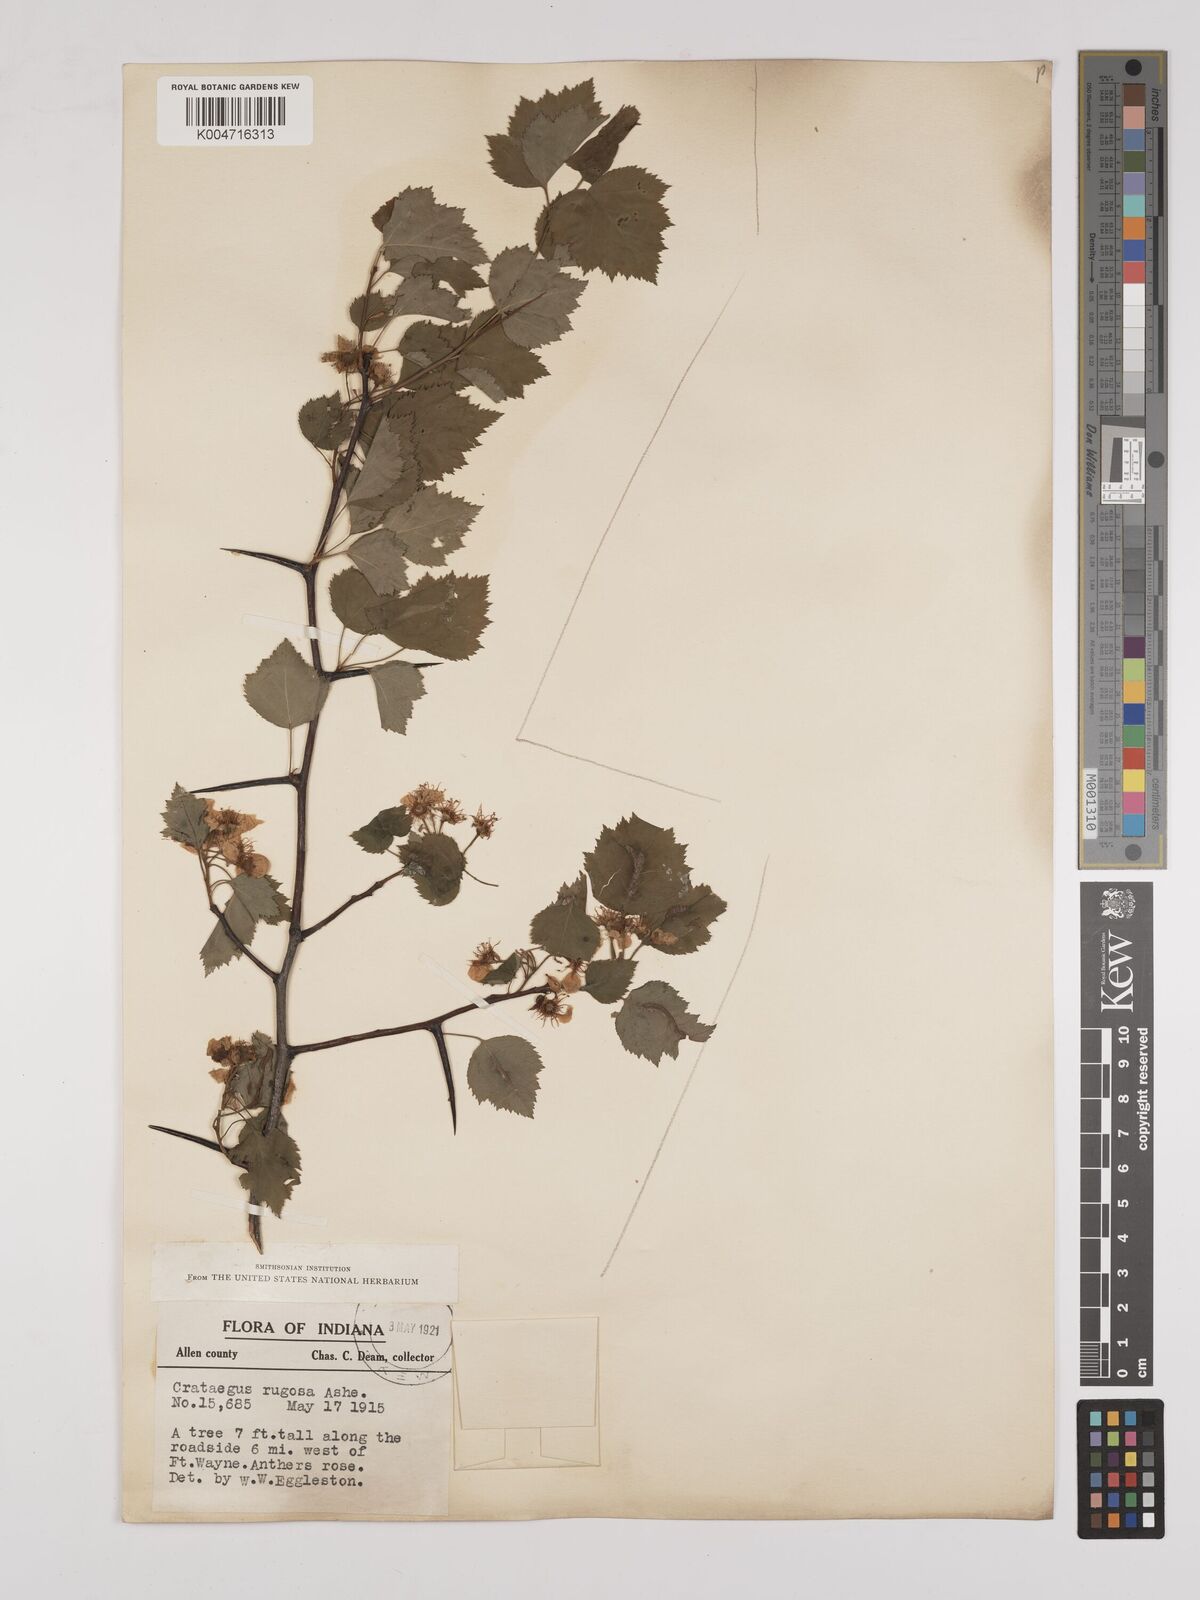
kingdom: Plantae
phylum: Tracheophyta
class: Magnoliopsida
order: Rosales
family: Rosaceae
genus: Crataegus
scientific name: Crataegus pruinosa
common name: Waxy-fruit hawthorn
